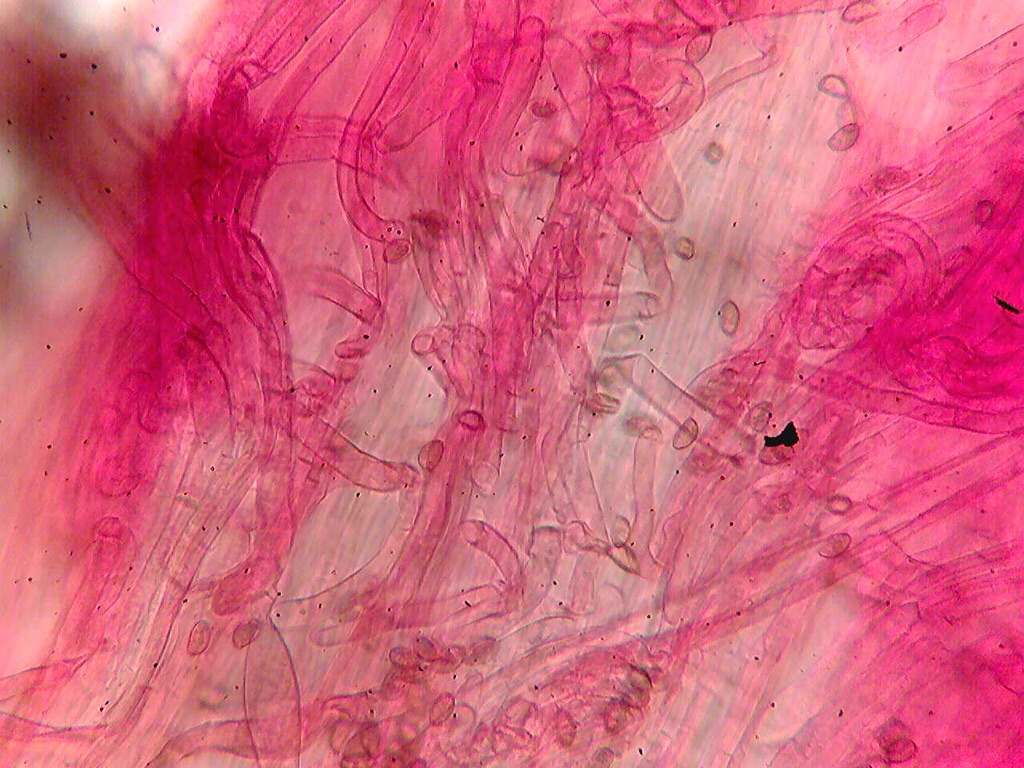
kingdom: Fungi
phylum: Basidiomycota
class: Agaricomycetes
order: Agaricales
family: Inocybaceae
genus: Inocybe
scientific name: Inocybe
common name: trævlhat
